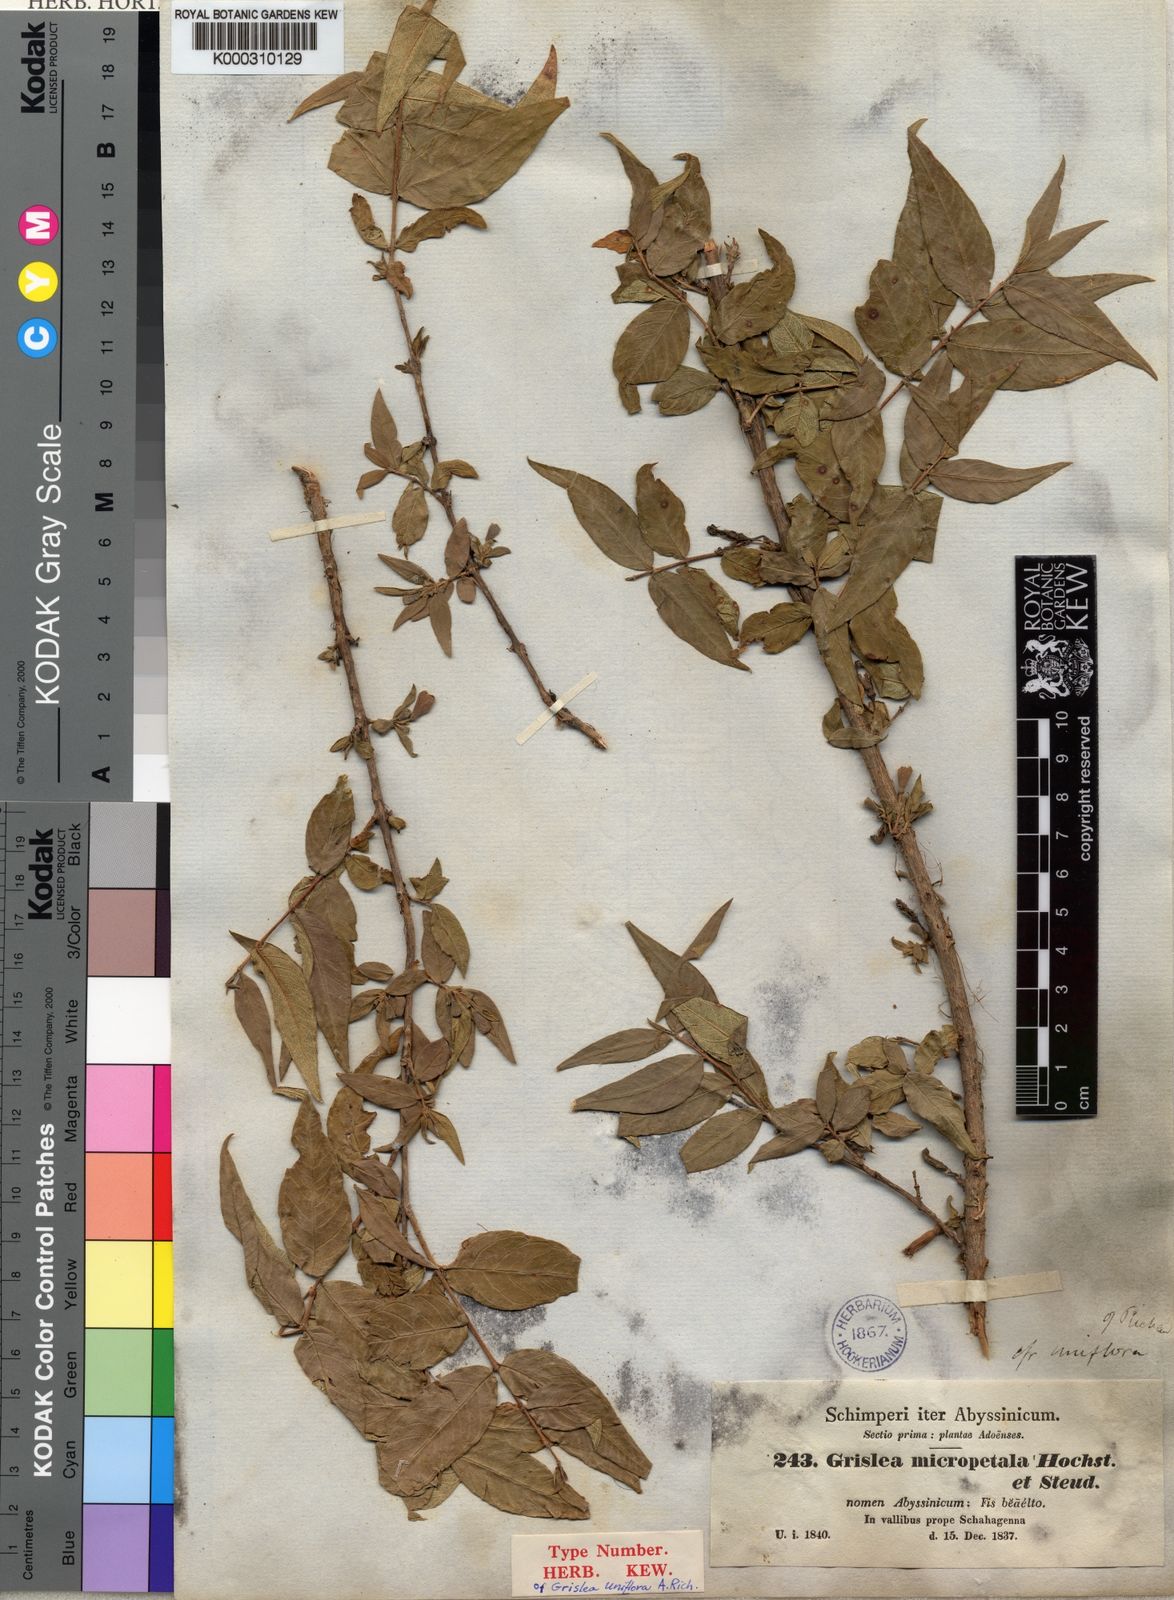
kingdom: Plantae
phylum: Tracheophyta
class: Magnoliopsida
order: Myrtales
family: Lythraceae
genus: Woodfordia
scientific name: Woodfordia uniflora
